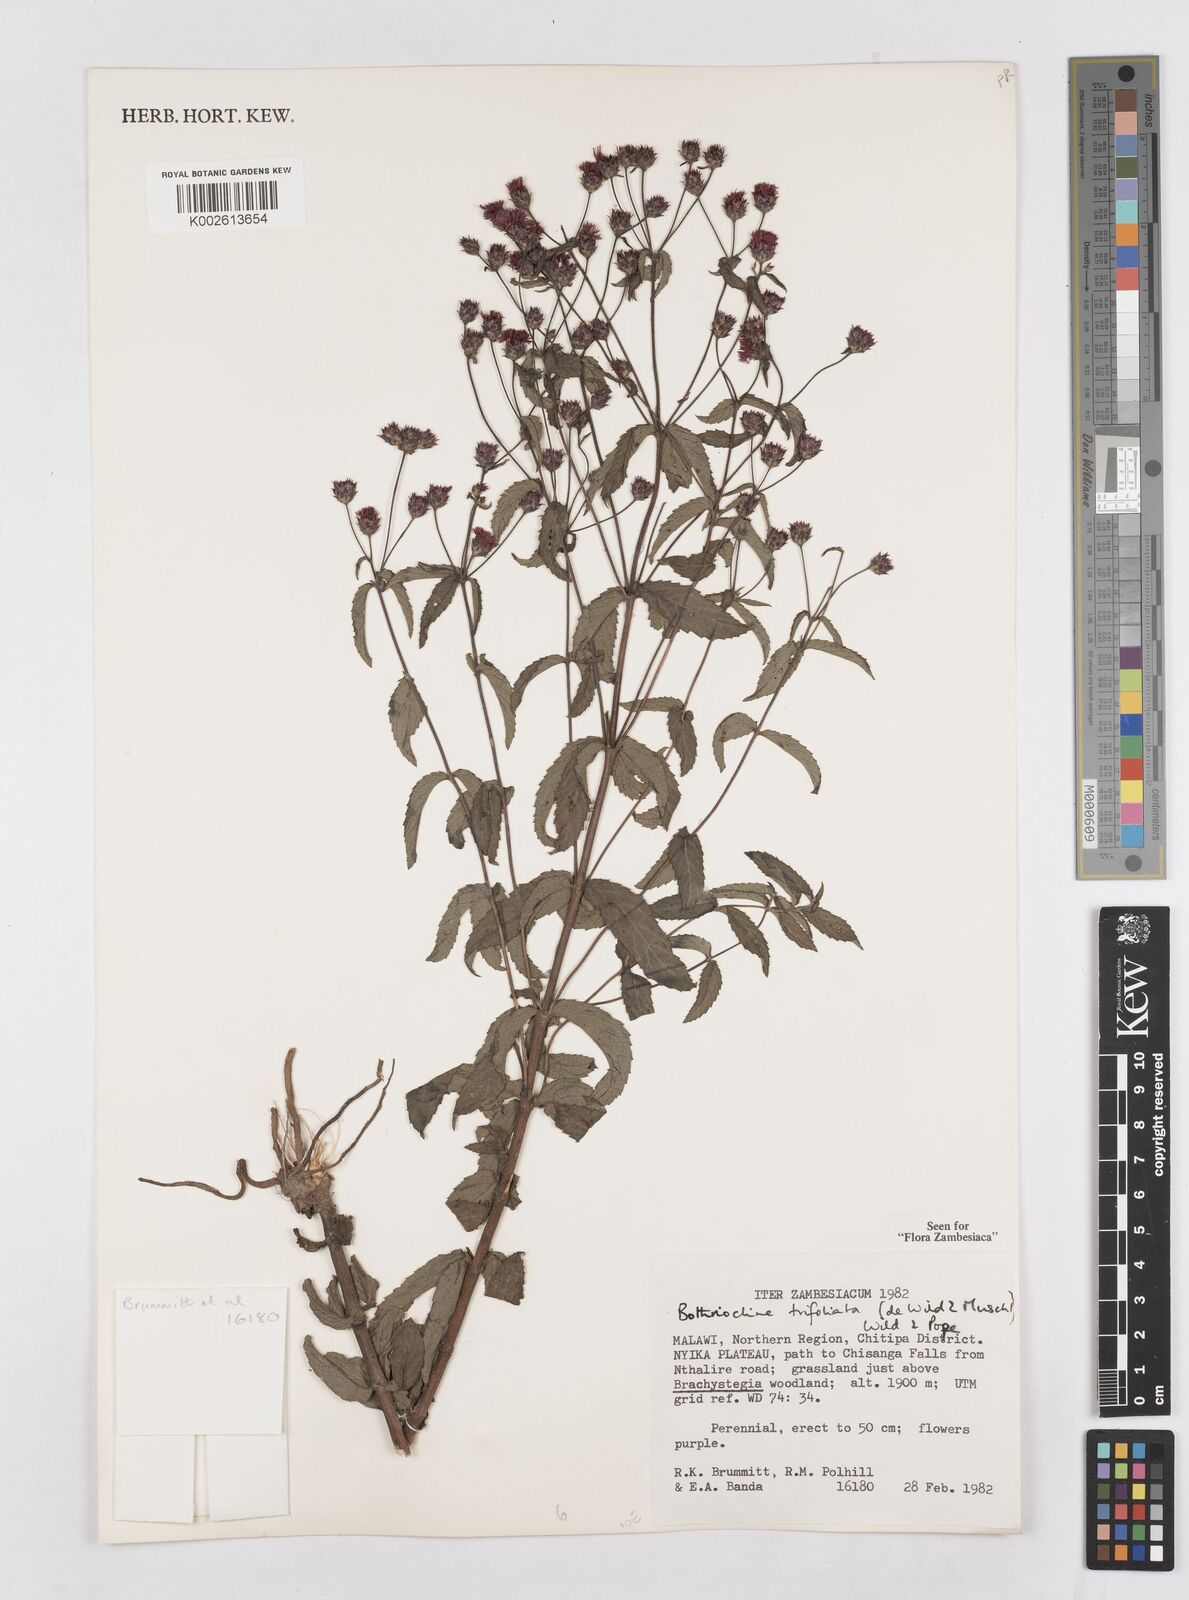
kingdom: Plantae
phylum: Tracheophyta
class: Magnoliopsida
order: Asterales
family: Asteraceae
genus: Bothriocline
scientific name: Bothriocline trifoliata
